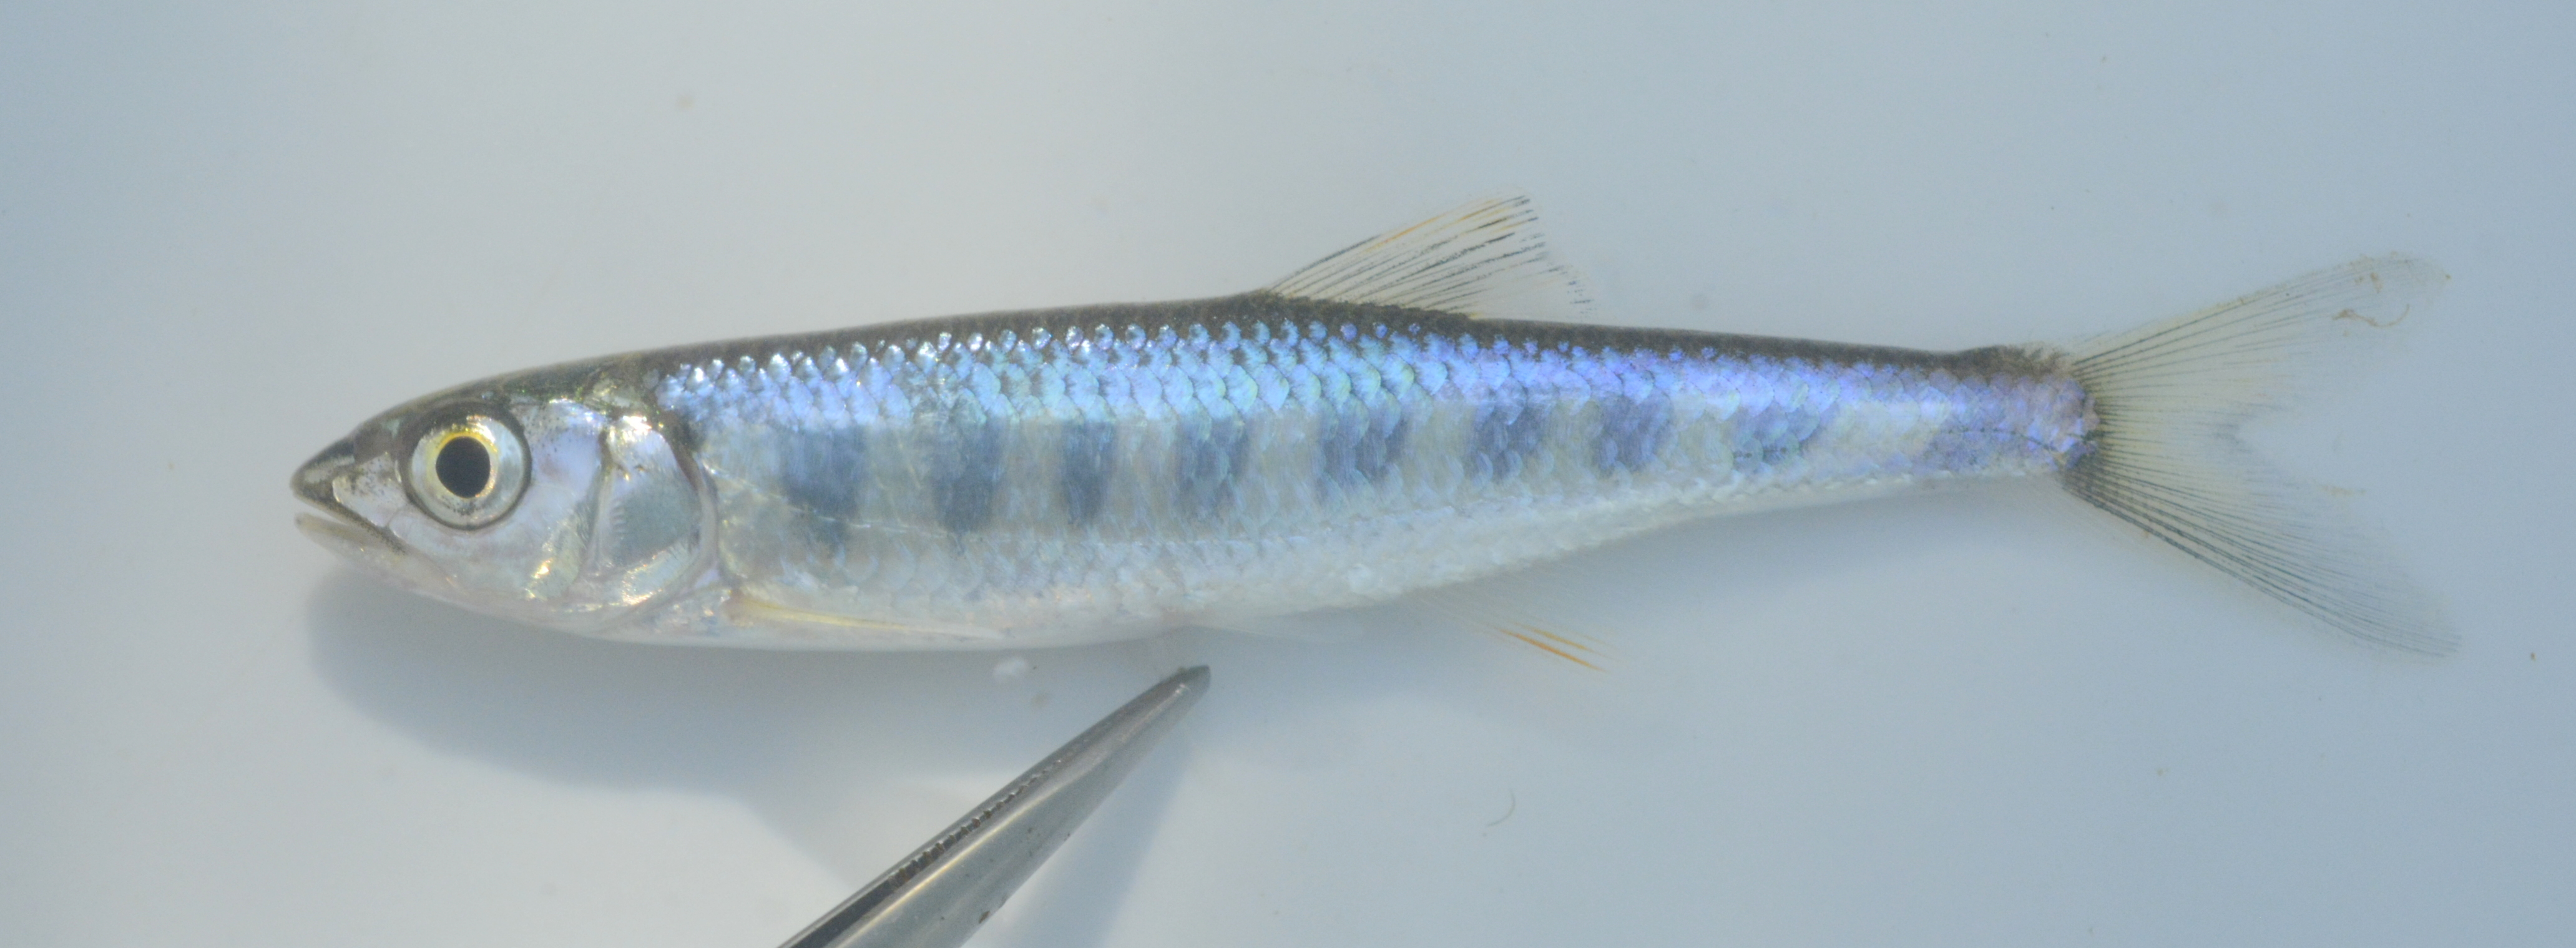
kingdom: Animalia
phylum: Chordata
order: Cypriniformes
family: Cyprinidae
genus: Opsaridium
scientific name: Opsaridium zambezense
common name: Barred minnow
